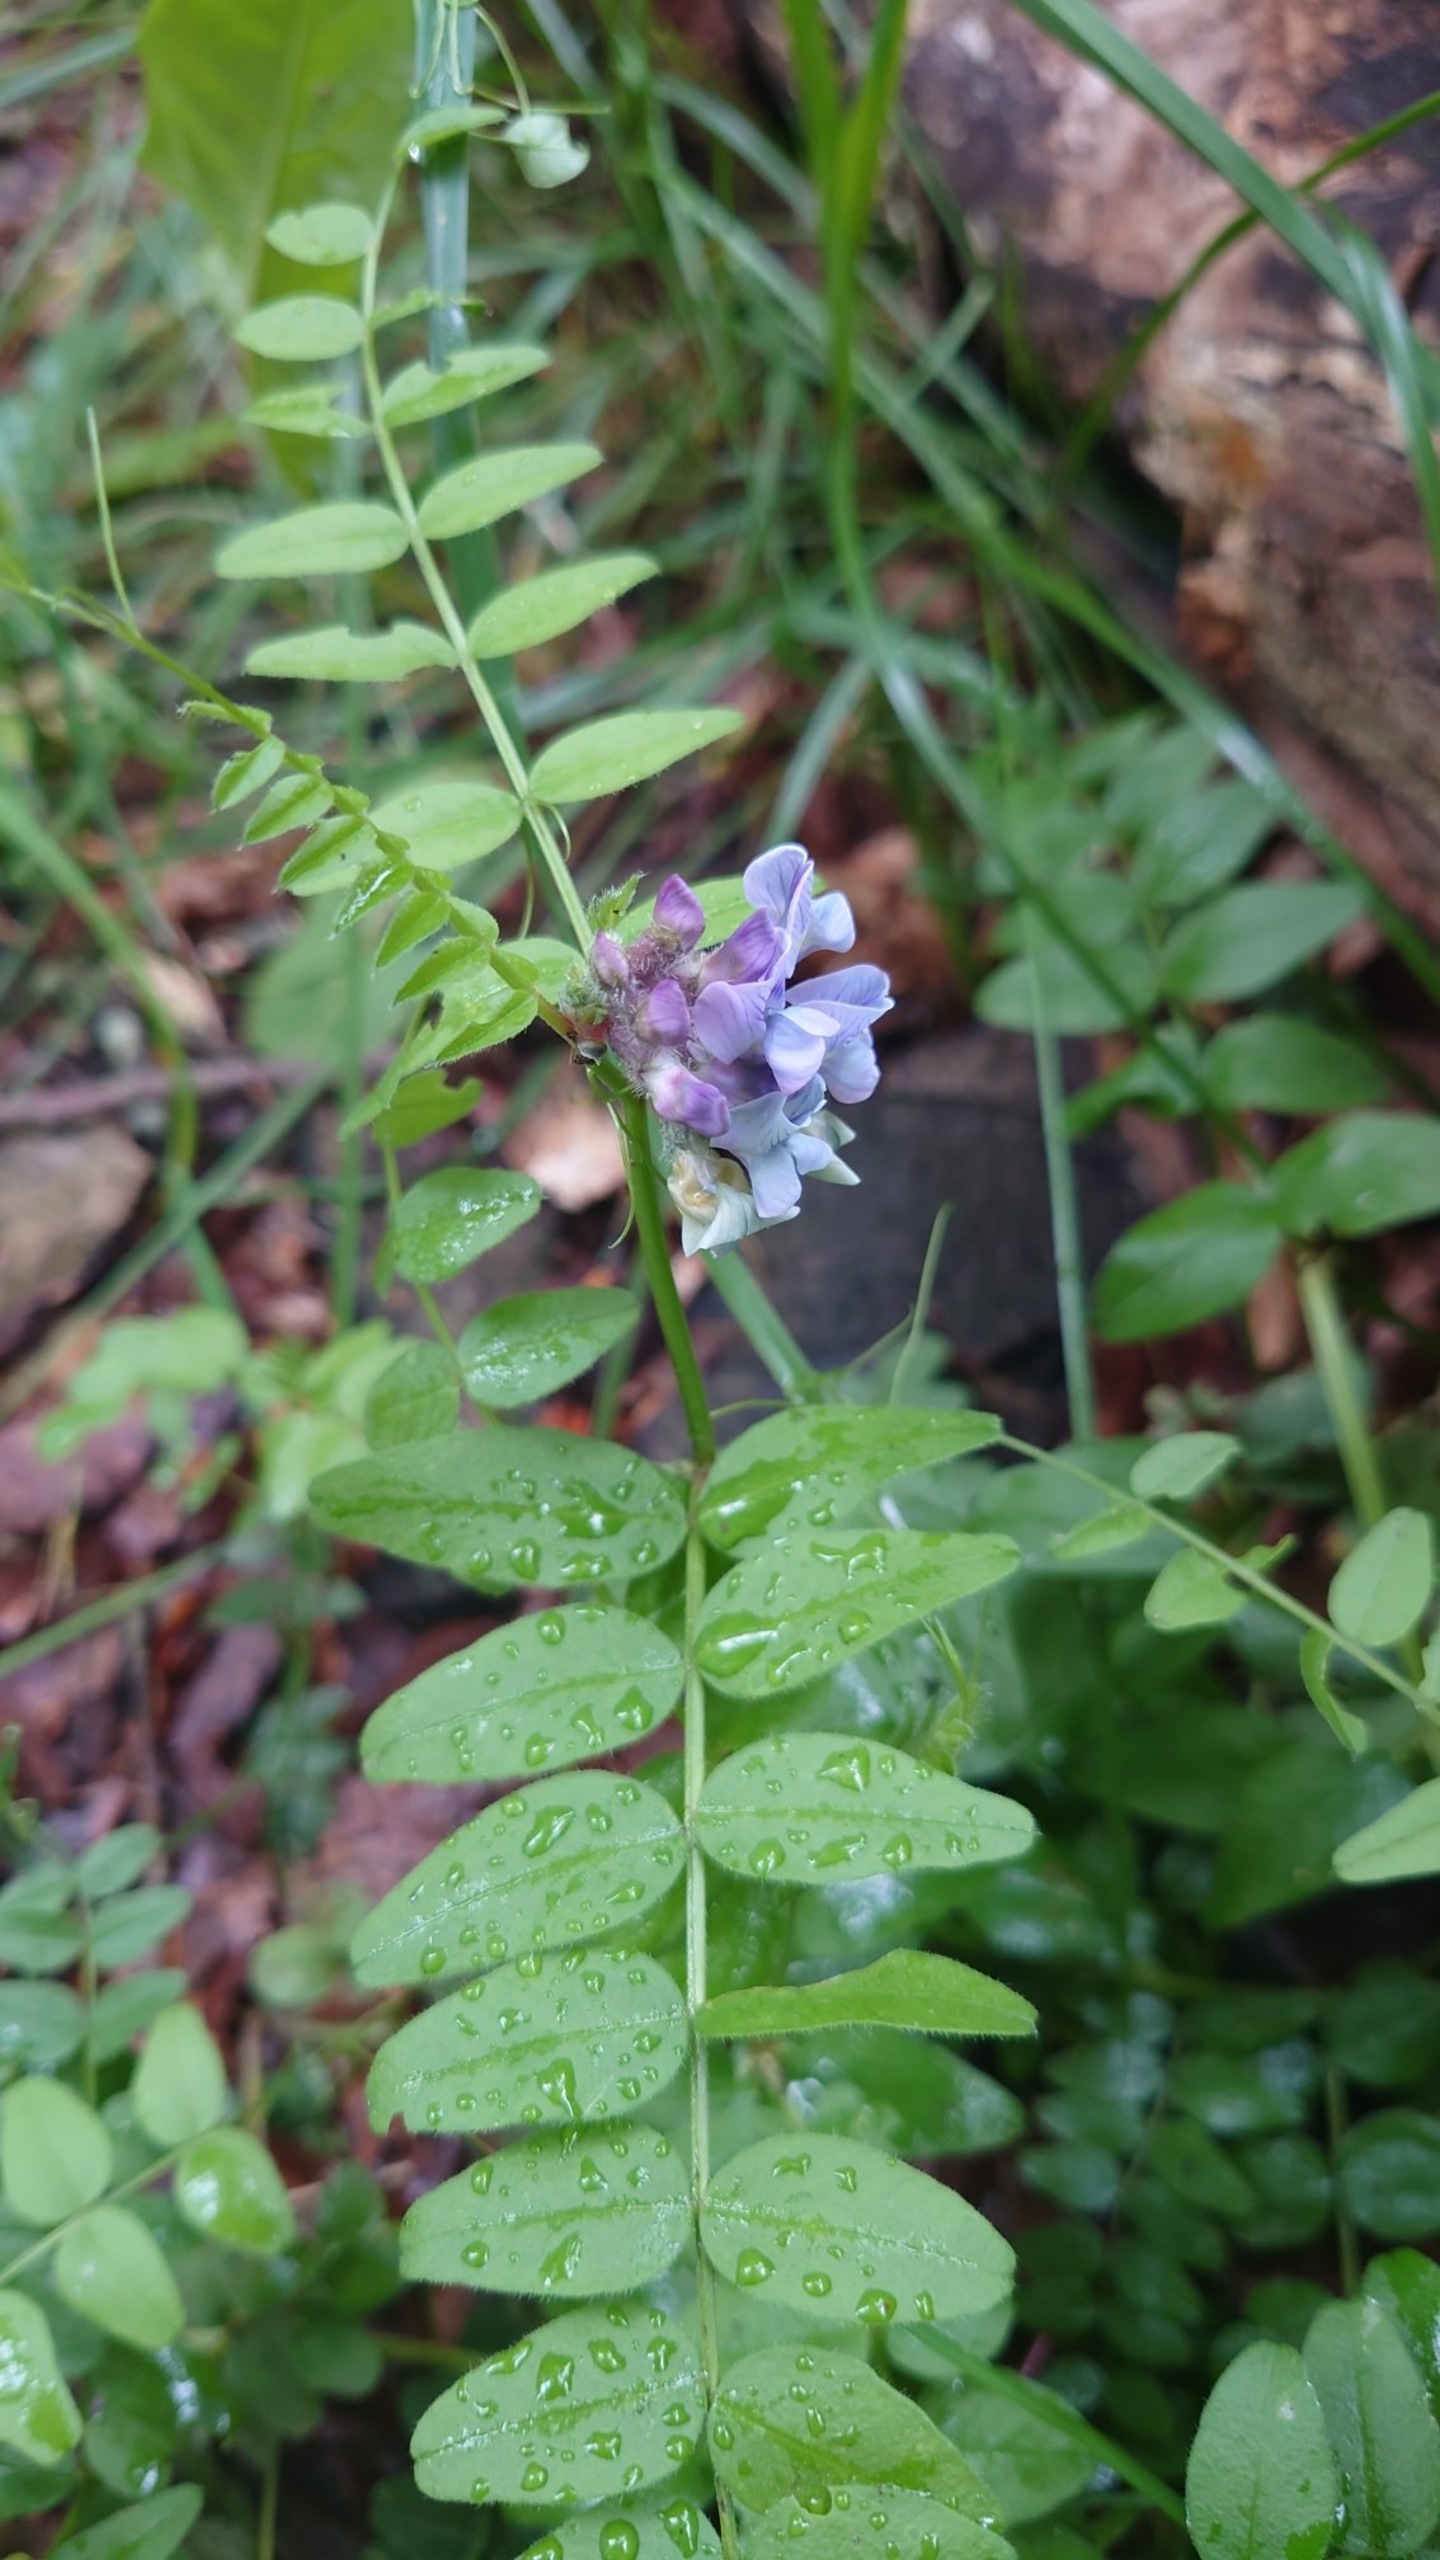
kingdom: Plantae
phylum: Tracheophyta
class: Magnoliopsida
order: Fabales
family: Fabaceae
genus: Vicia
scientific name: Vicia sepium
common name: Gærde-vikke
